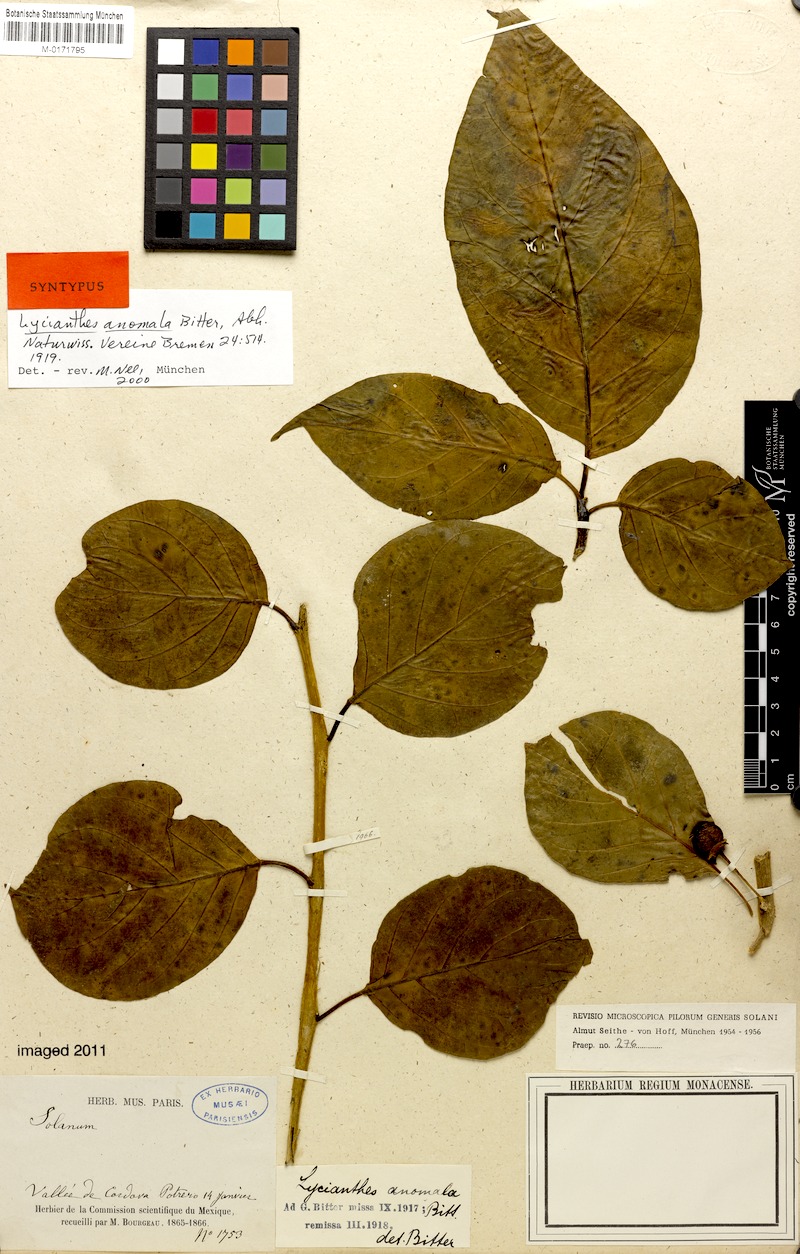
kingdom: Plantae
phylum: Tracheophyta
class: Magnoliopsida
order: Solanales
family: Solanaceae
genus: Lycianthes
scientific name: Lycianthes anomala
